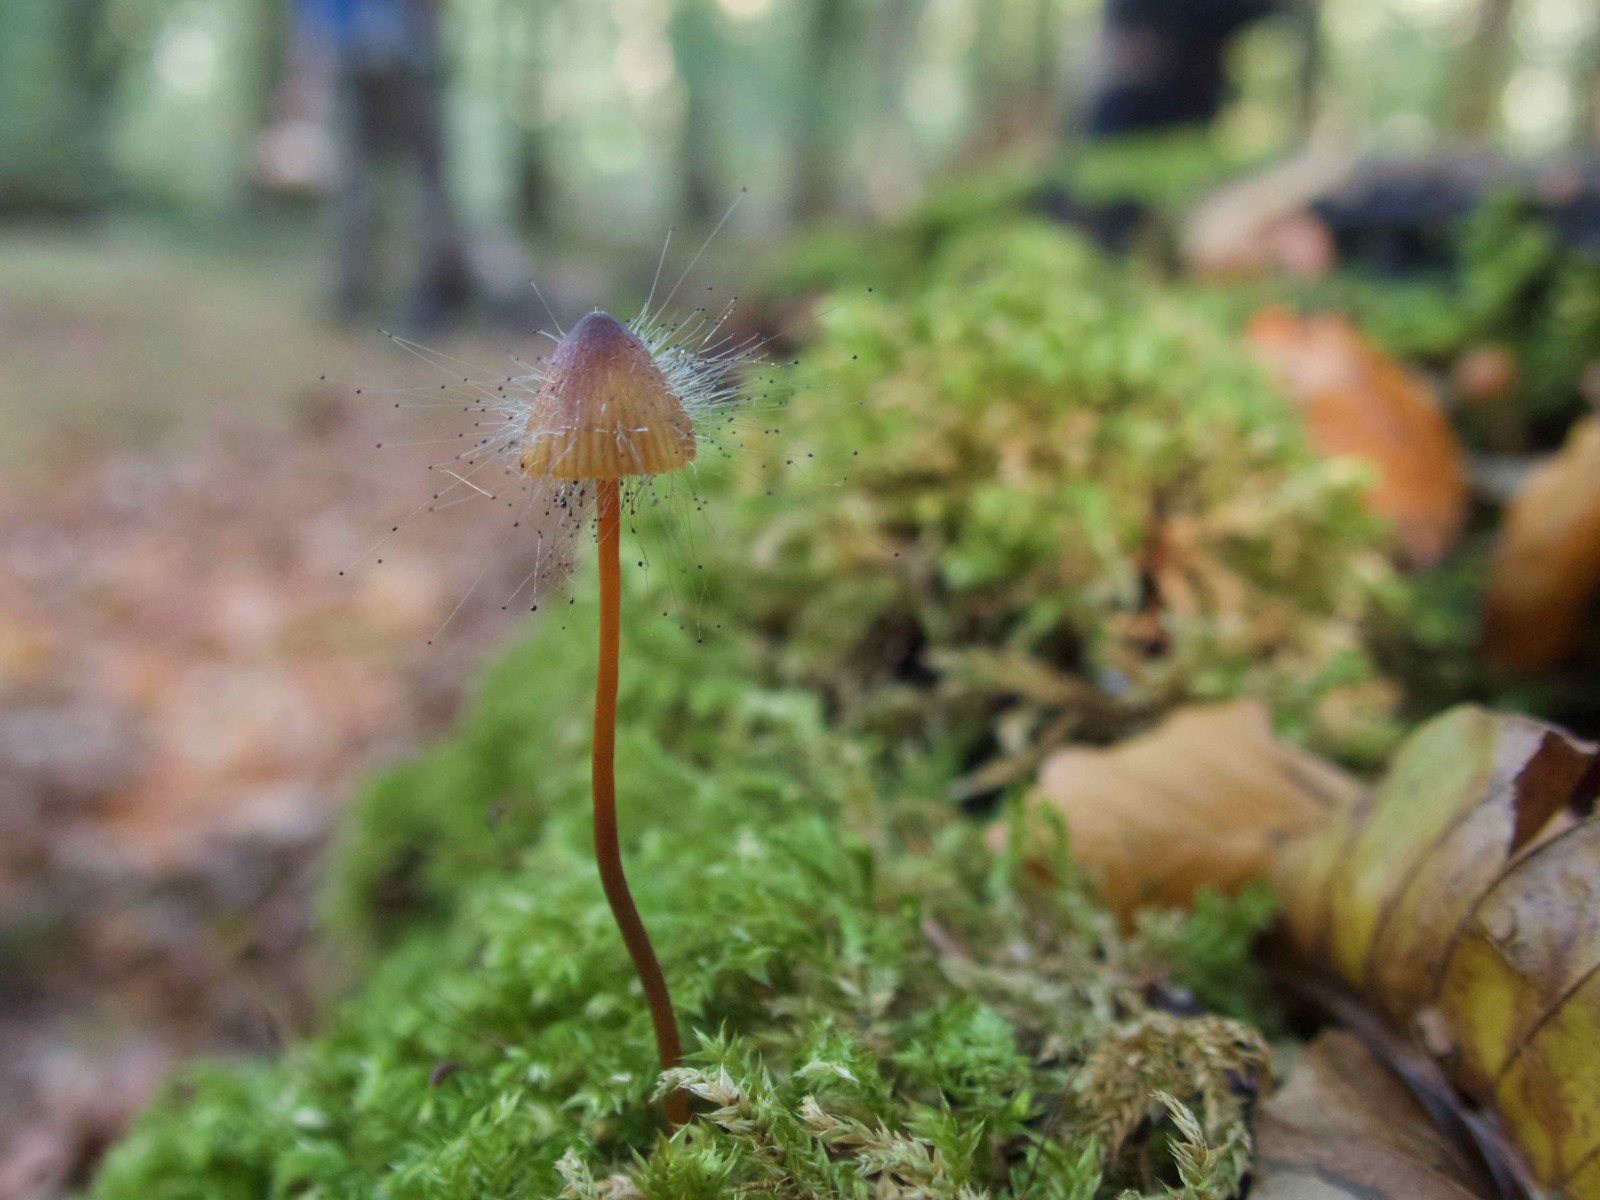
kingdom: Fungi
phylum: Mucoromycota
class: Mucoromycetes
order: Mucorales
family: Phycomycetaceae
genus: Spinellus
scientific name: Spinellus fusiger
